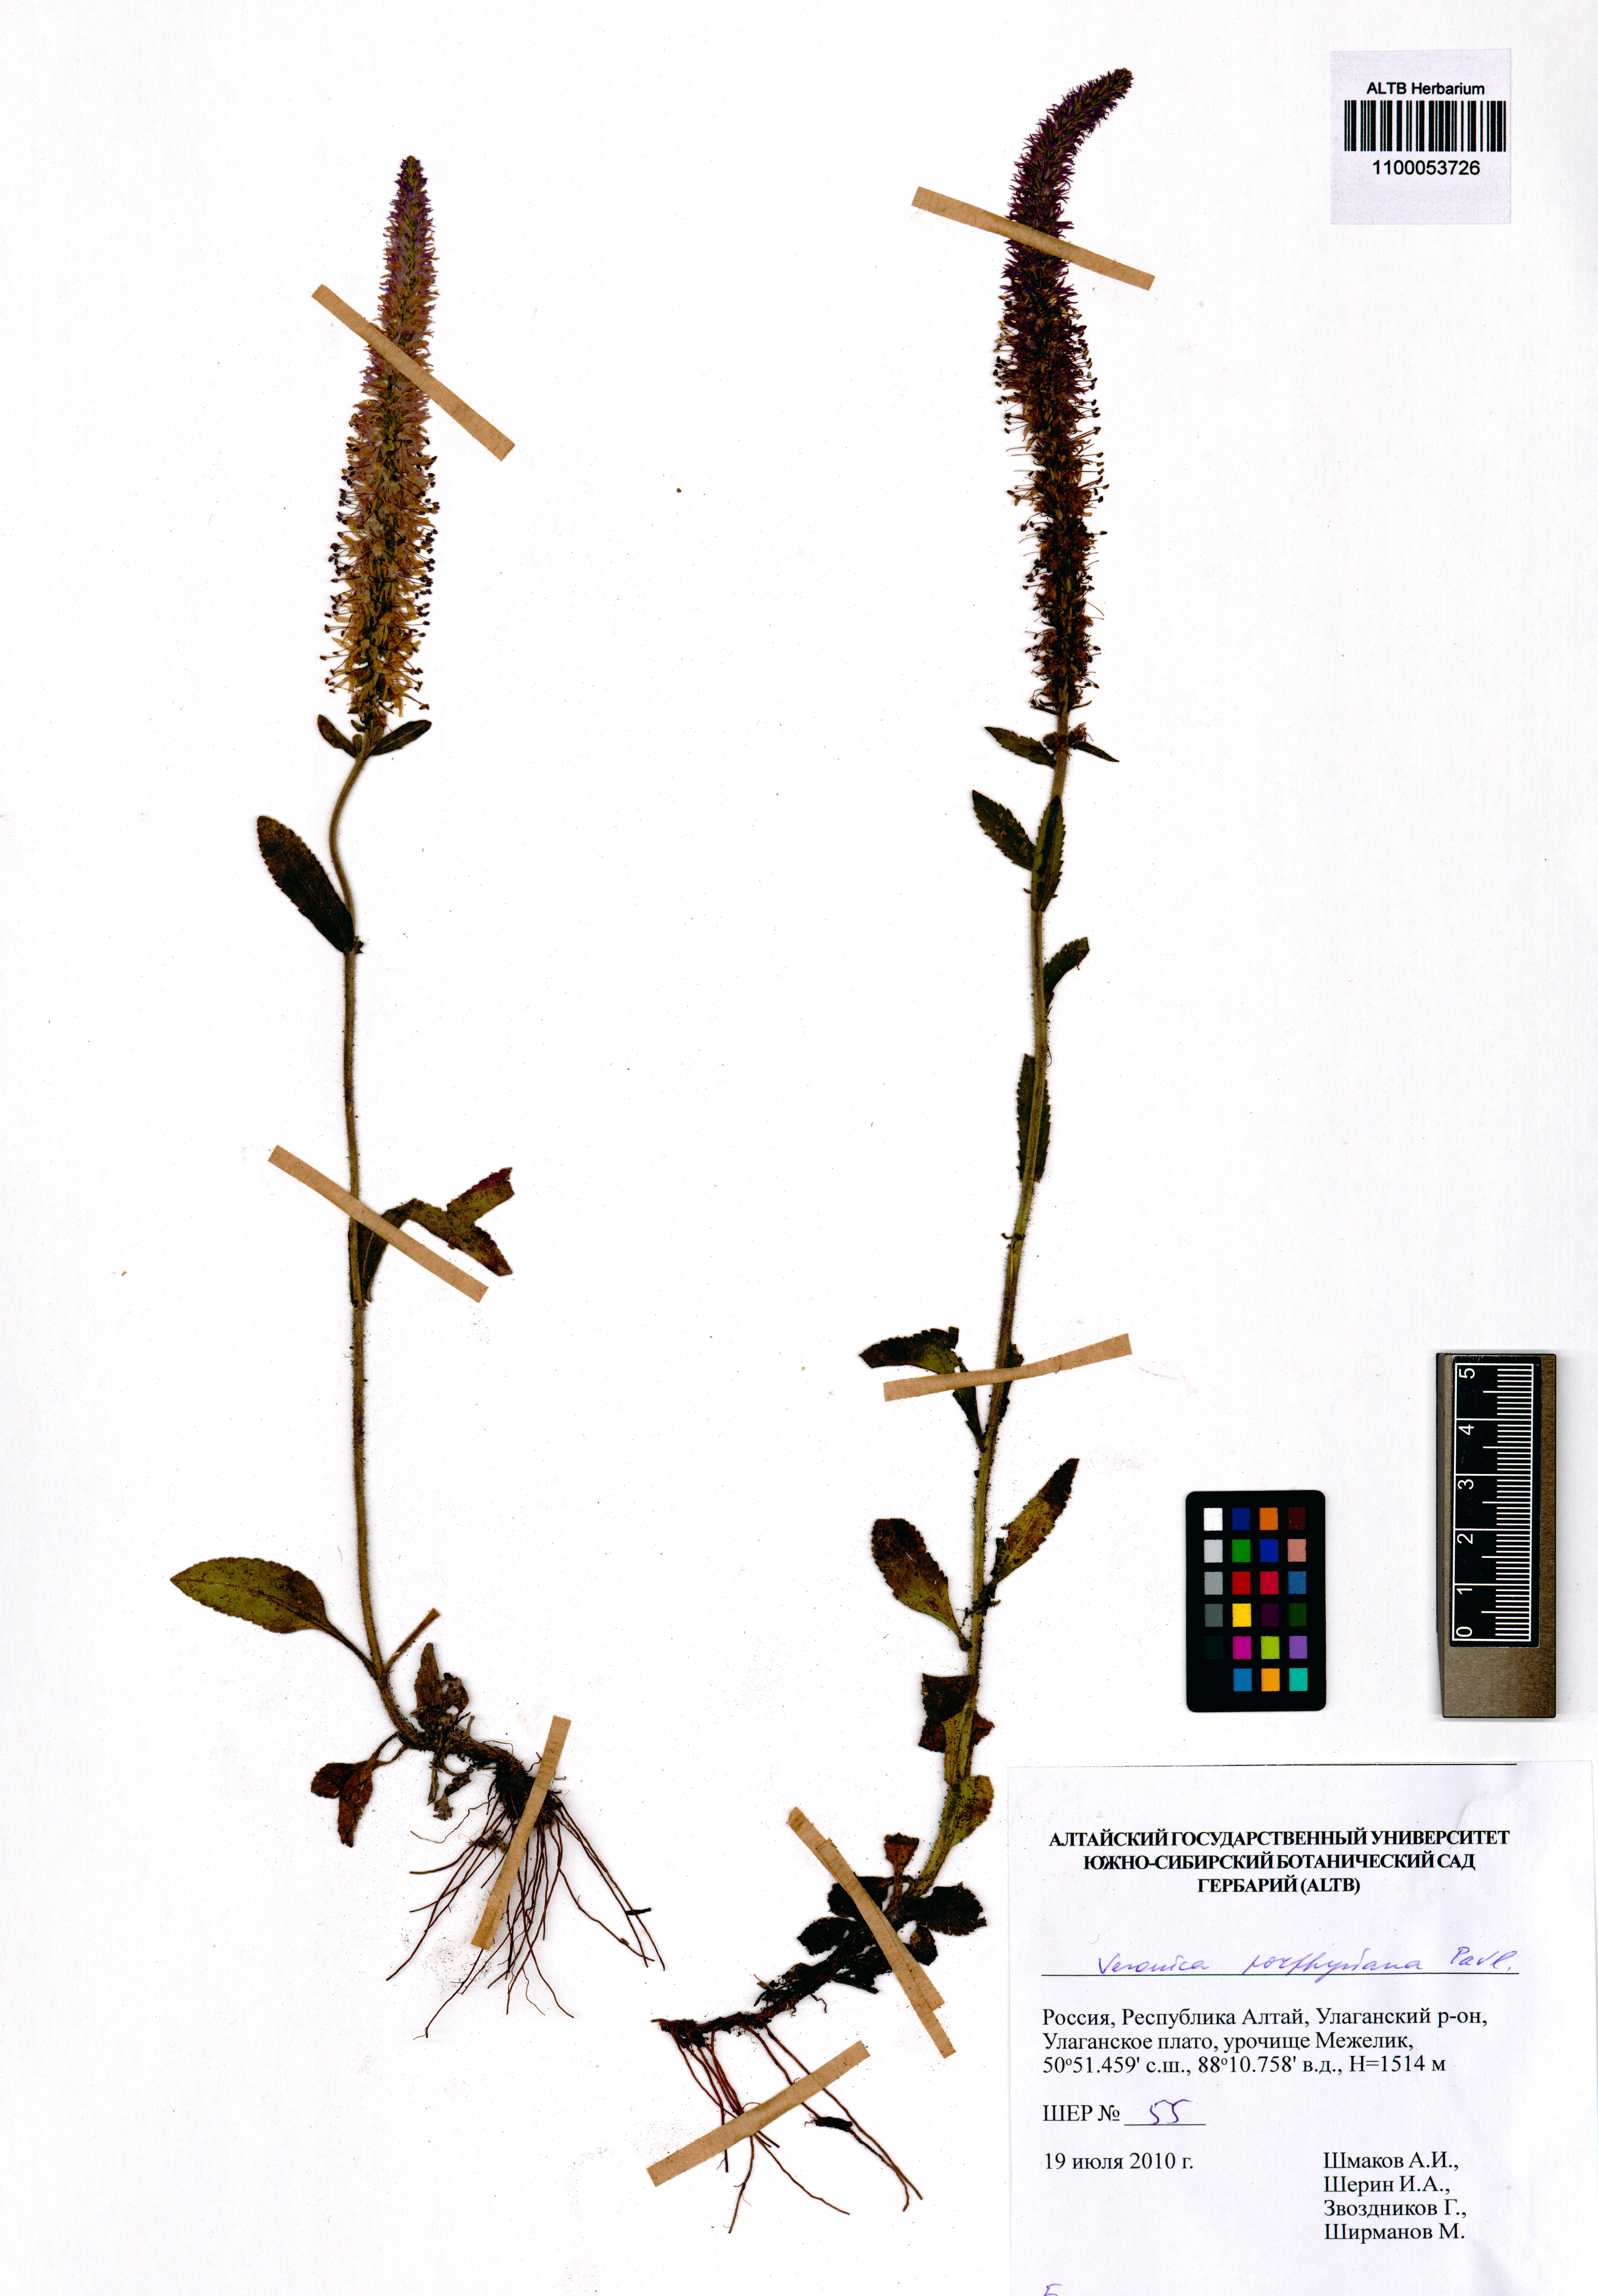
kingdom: Plantae
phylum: Tracheophyta
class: Magnoliopsida
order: Lamiales
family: Plantaginaceae
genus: Veronica
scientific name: Veronica porphyriana
